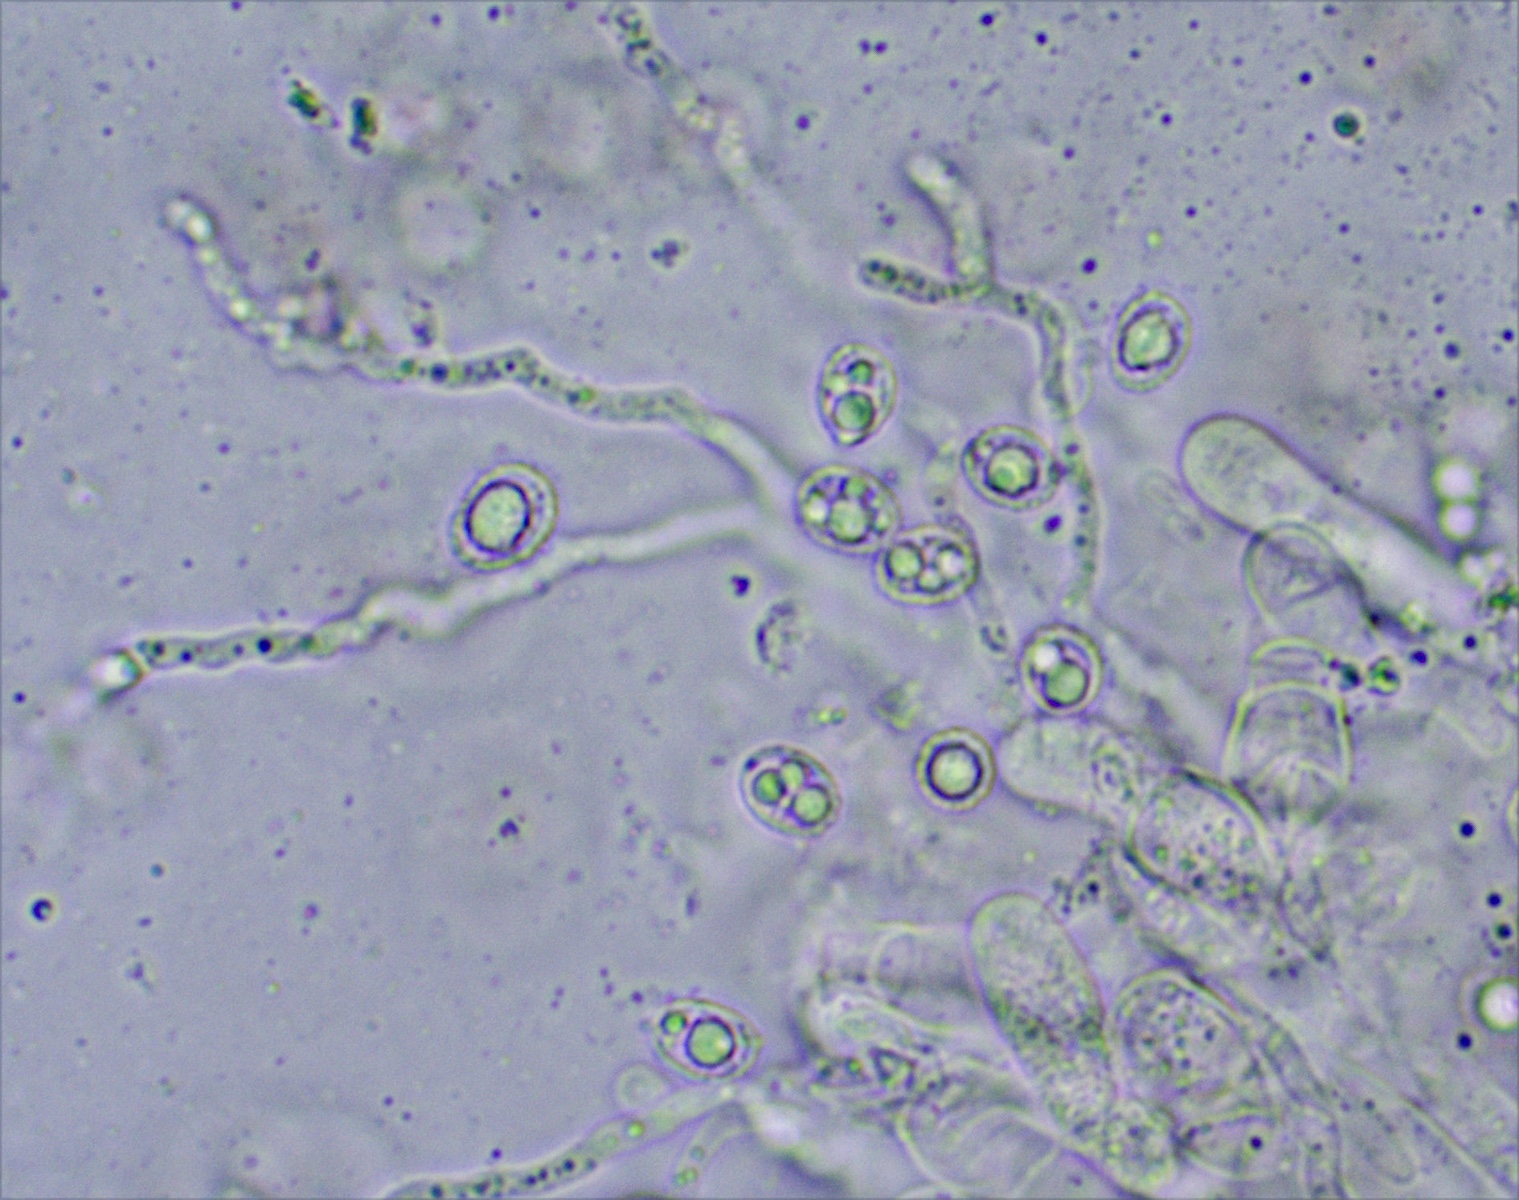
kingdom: Fungi
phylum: Basidiomycota
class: Agaricomycetes
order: Russulales
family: Auriscalpiaceae
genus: Lentinellus
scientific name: Lentinellus flabelliformis
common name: navle-savbladhat
